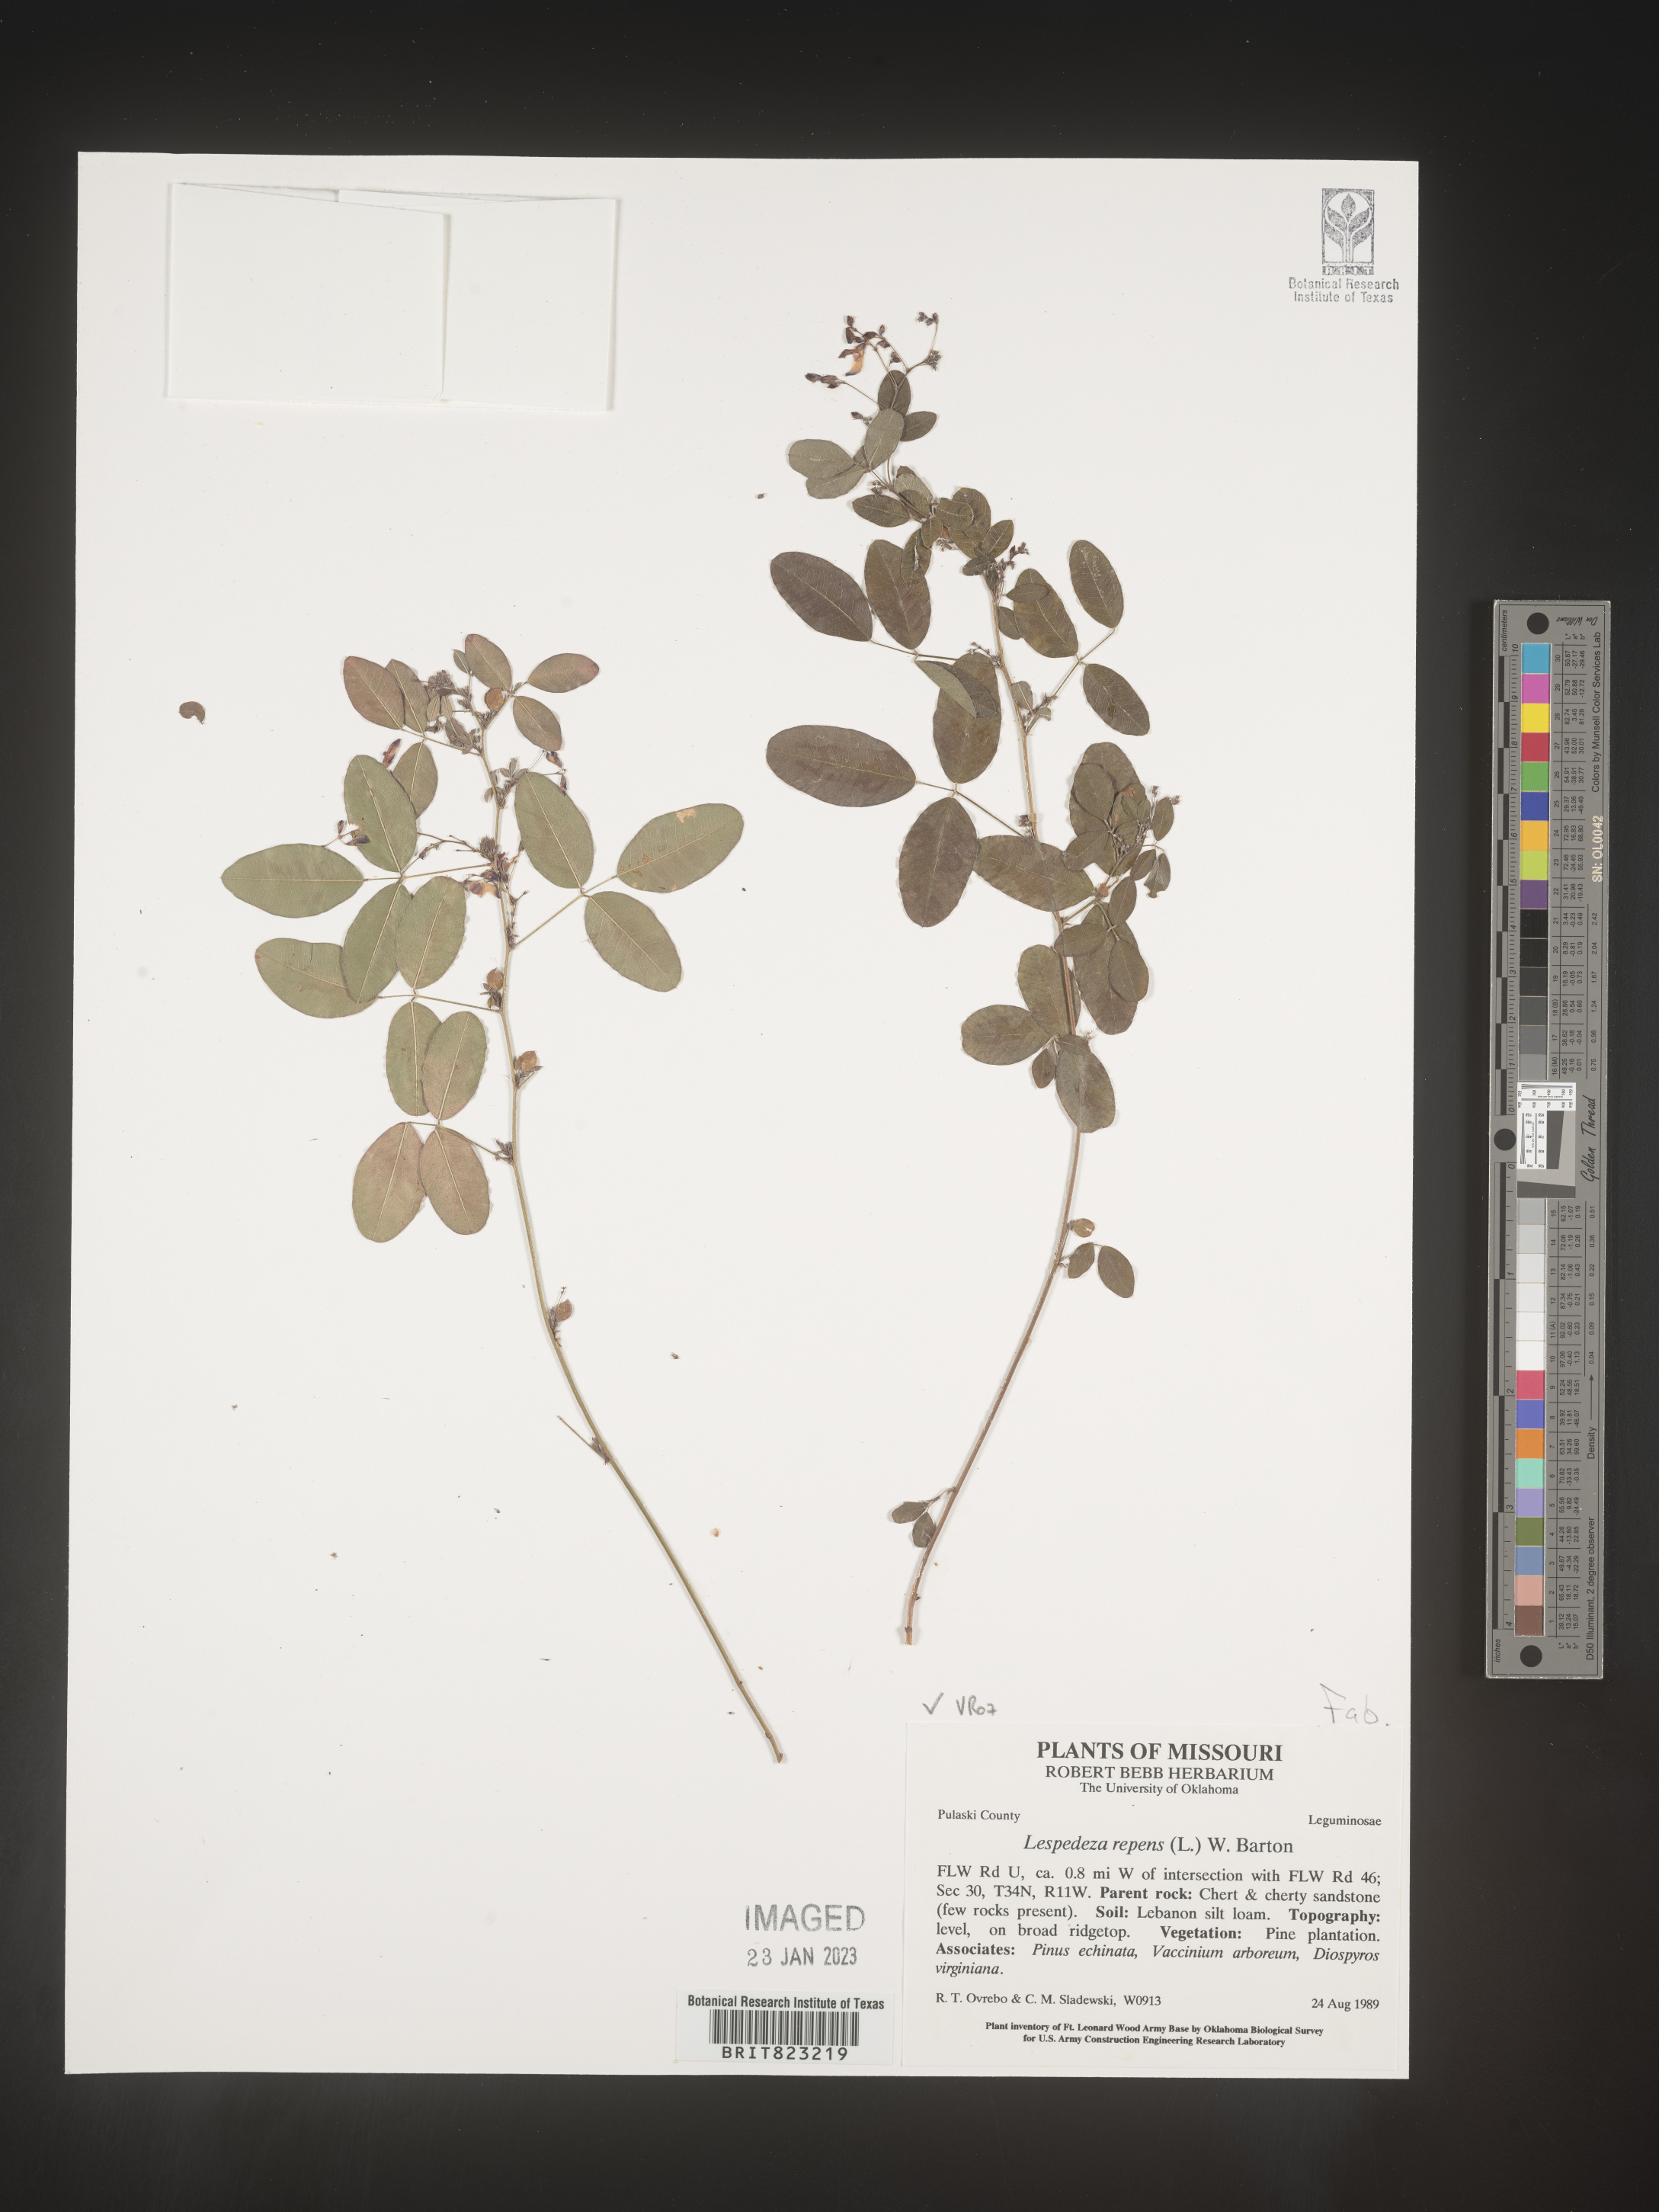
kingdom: Plantae
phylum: Tracheophyta
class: Magnoliopsida
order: Fabales
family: Fabaceae
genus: Lespedeza
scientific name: Lespedeza repens
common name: Creeping bush-clover
